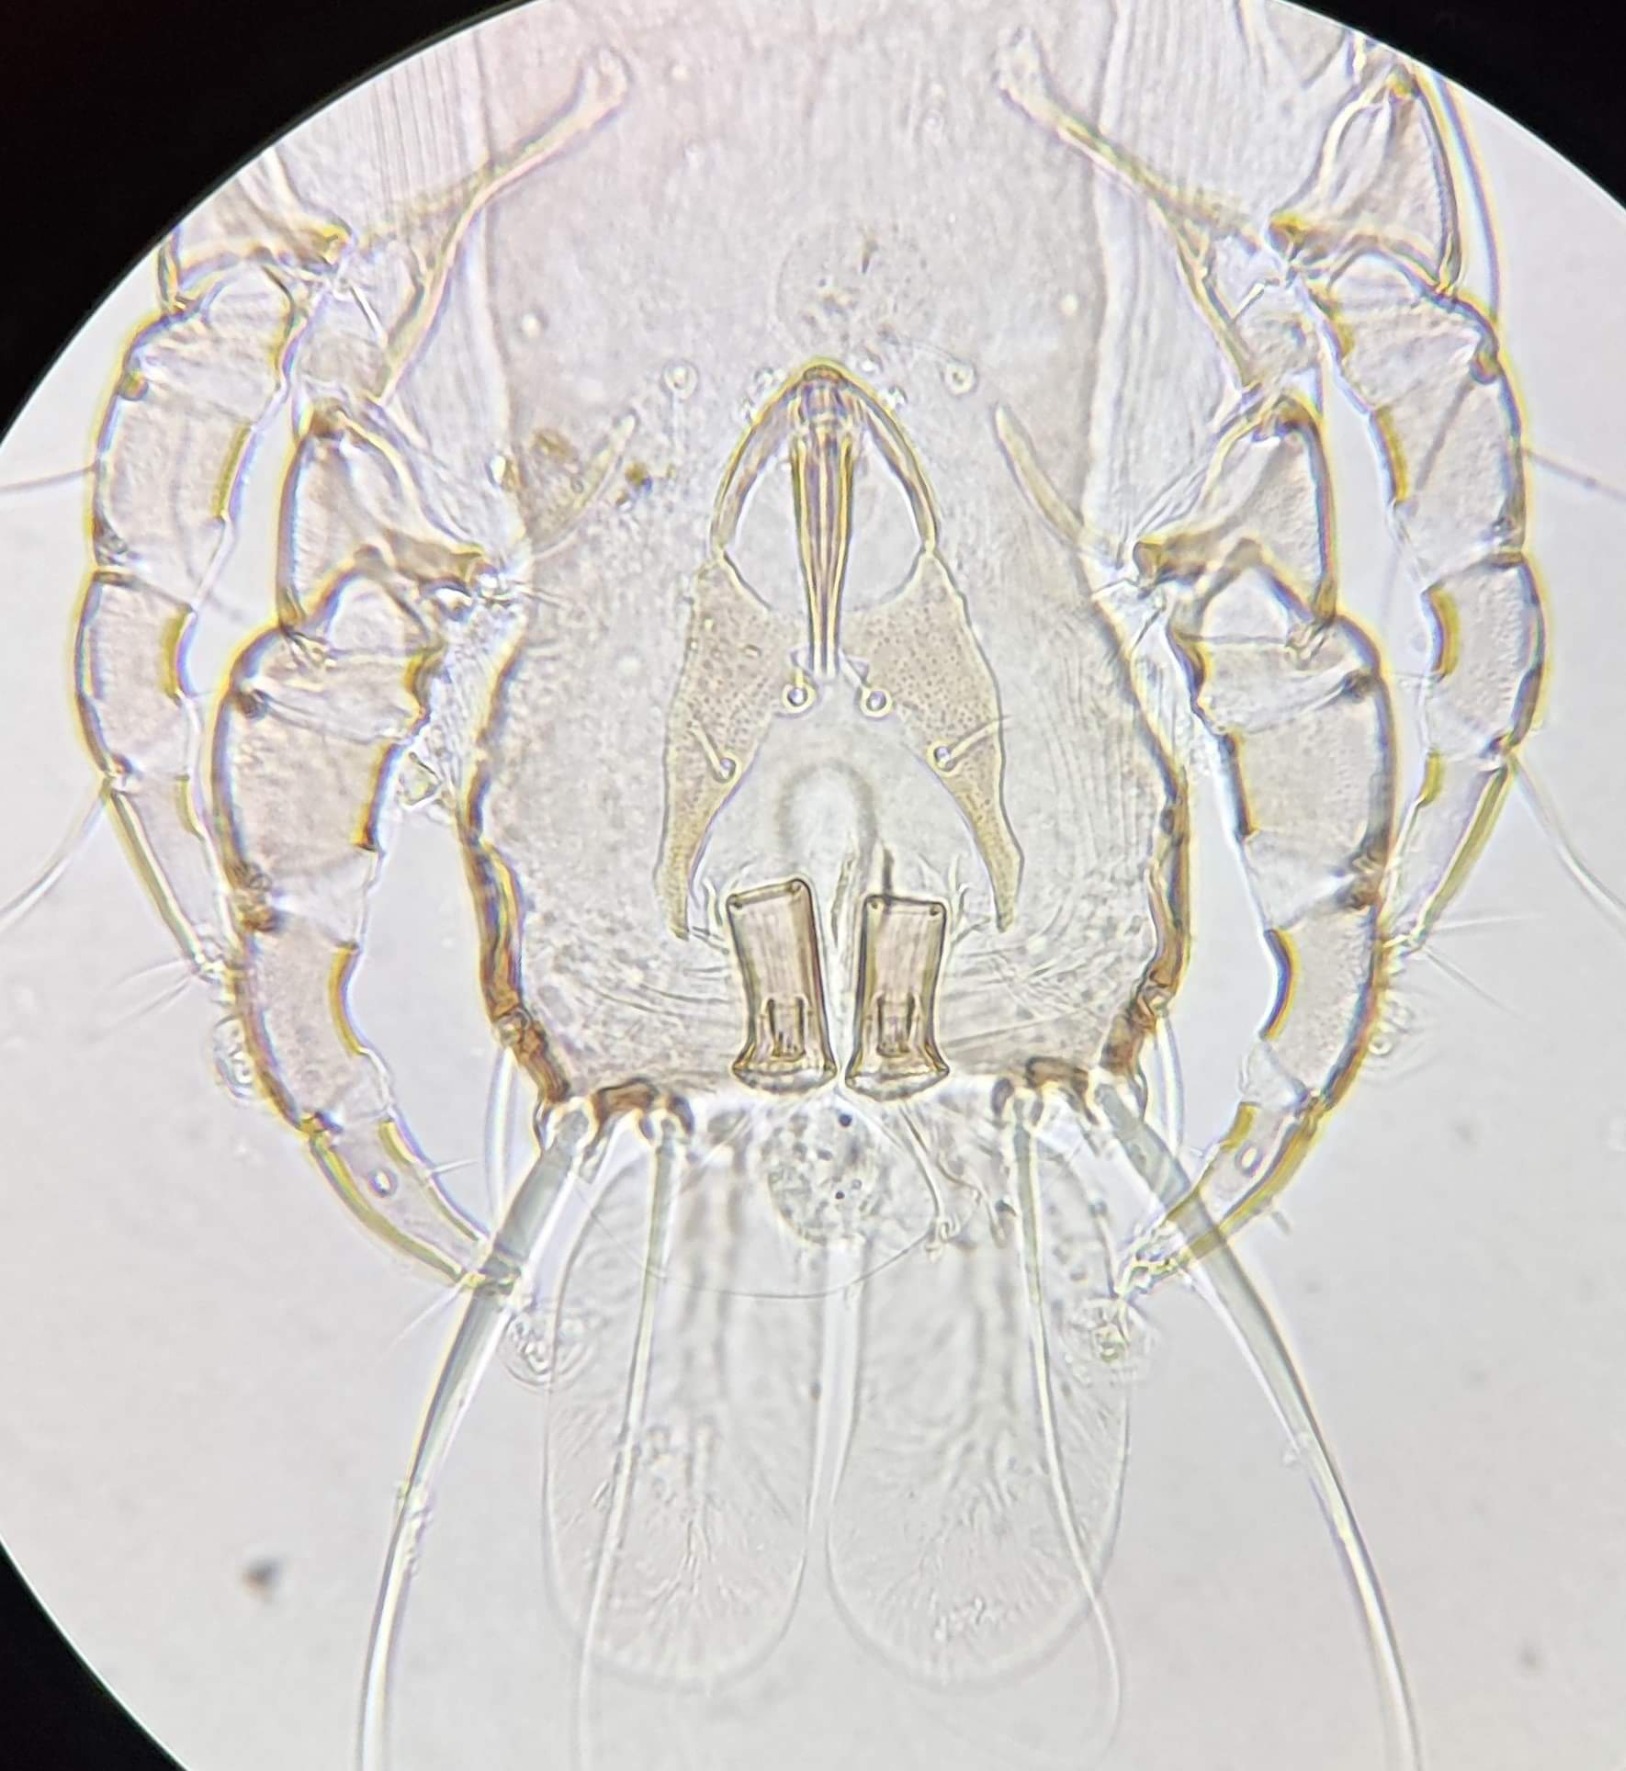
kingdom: Animalia
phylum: Arthropoda
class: Arachnida
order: Sarcoptiformes
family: Proctophyllodidae
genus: Proctophyllodes
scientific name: Proctophyllodes anthi
